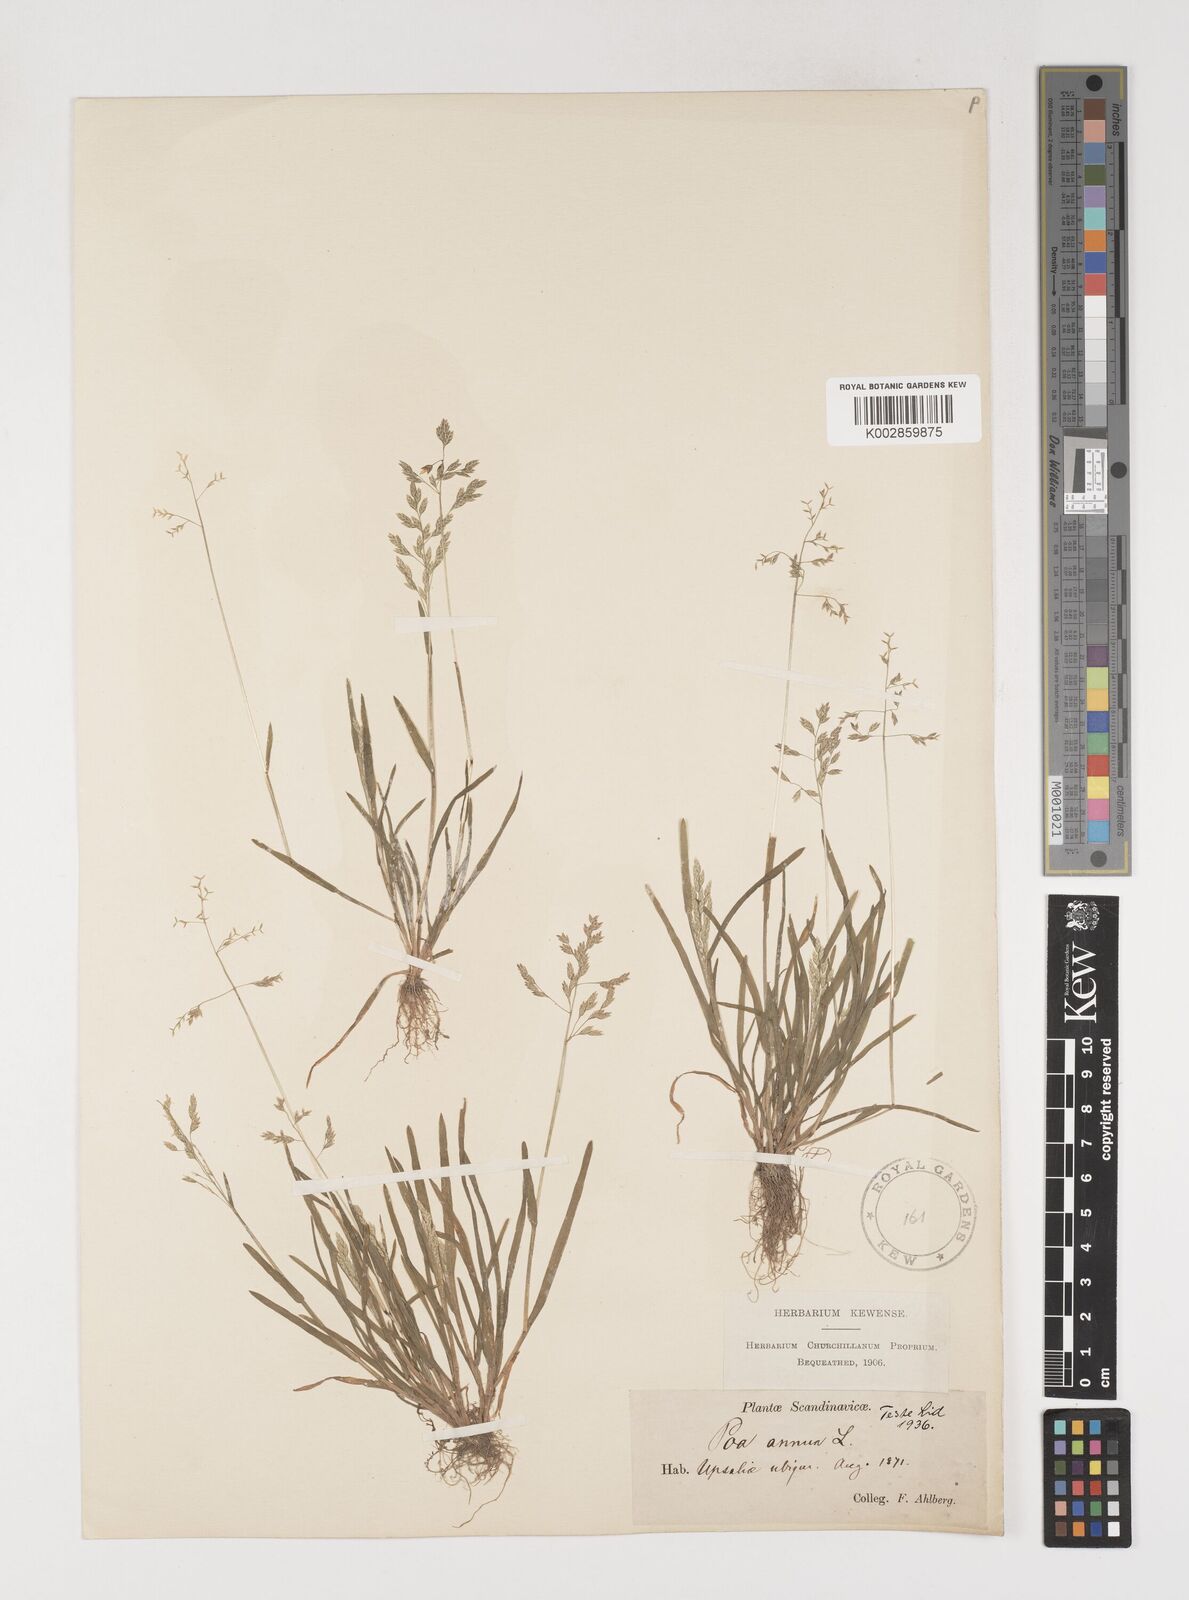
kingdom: Plantae
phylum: Tracheophyta
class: Liliopsida
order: Poales
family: Poaceae
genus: Poa
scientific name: Poa annua
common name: Annual bluegrass
